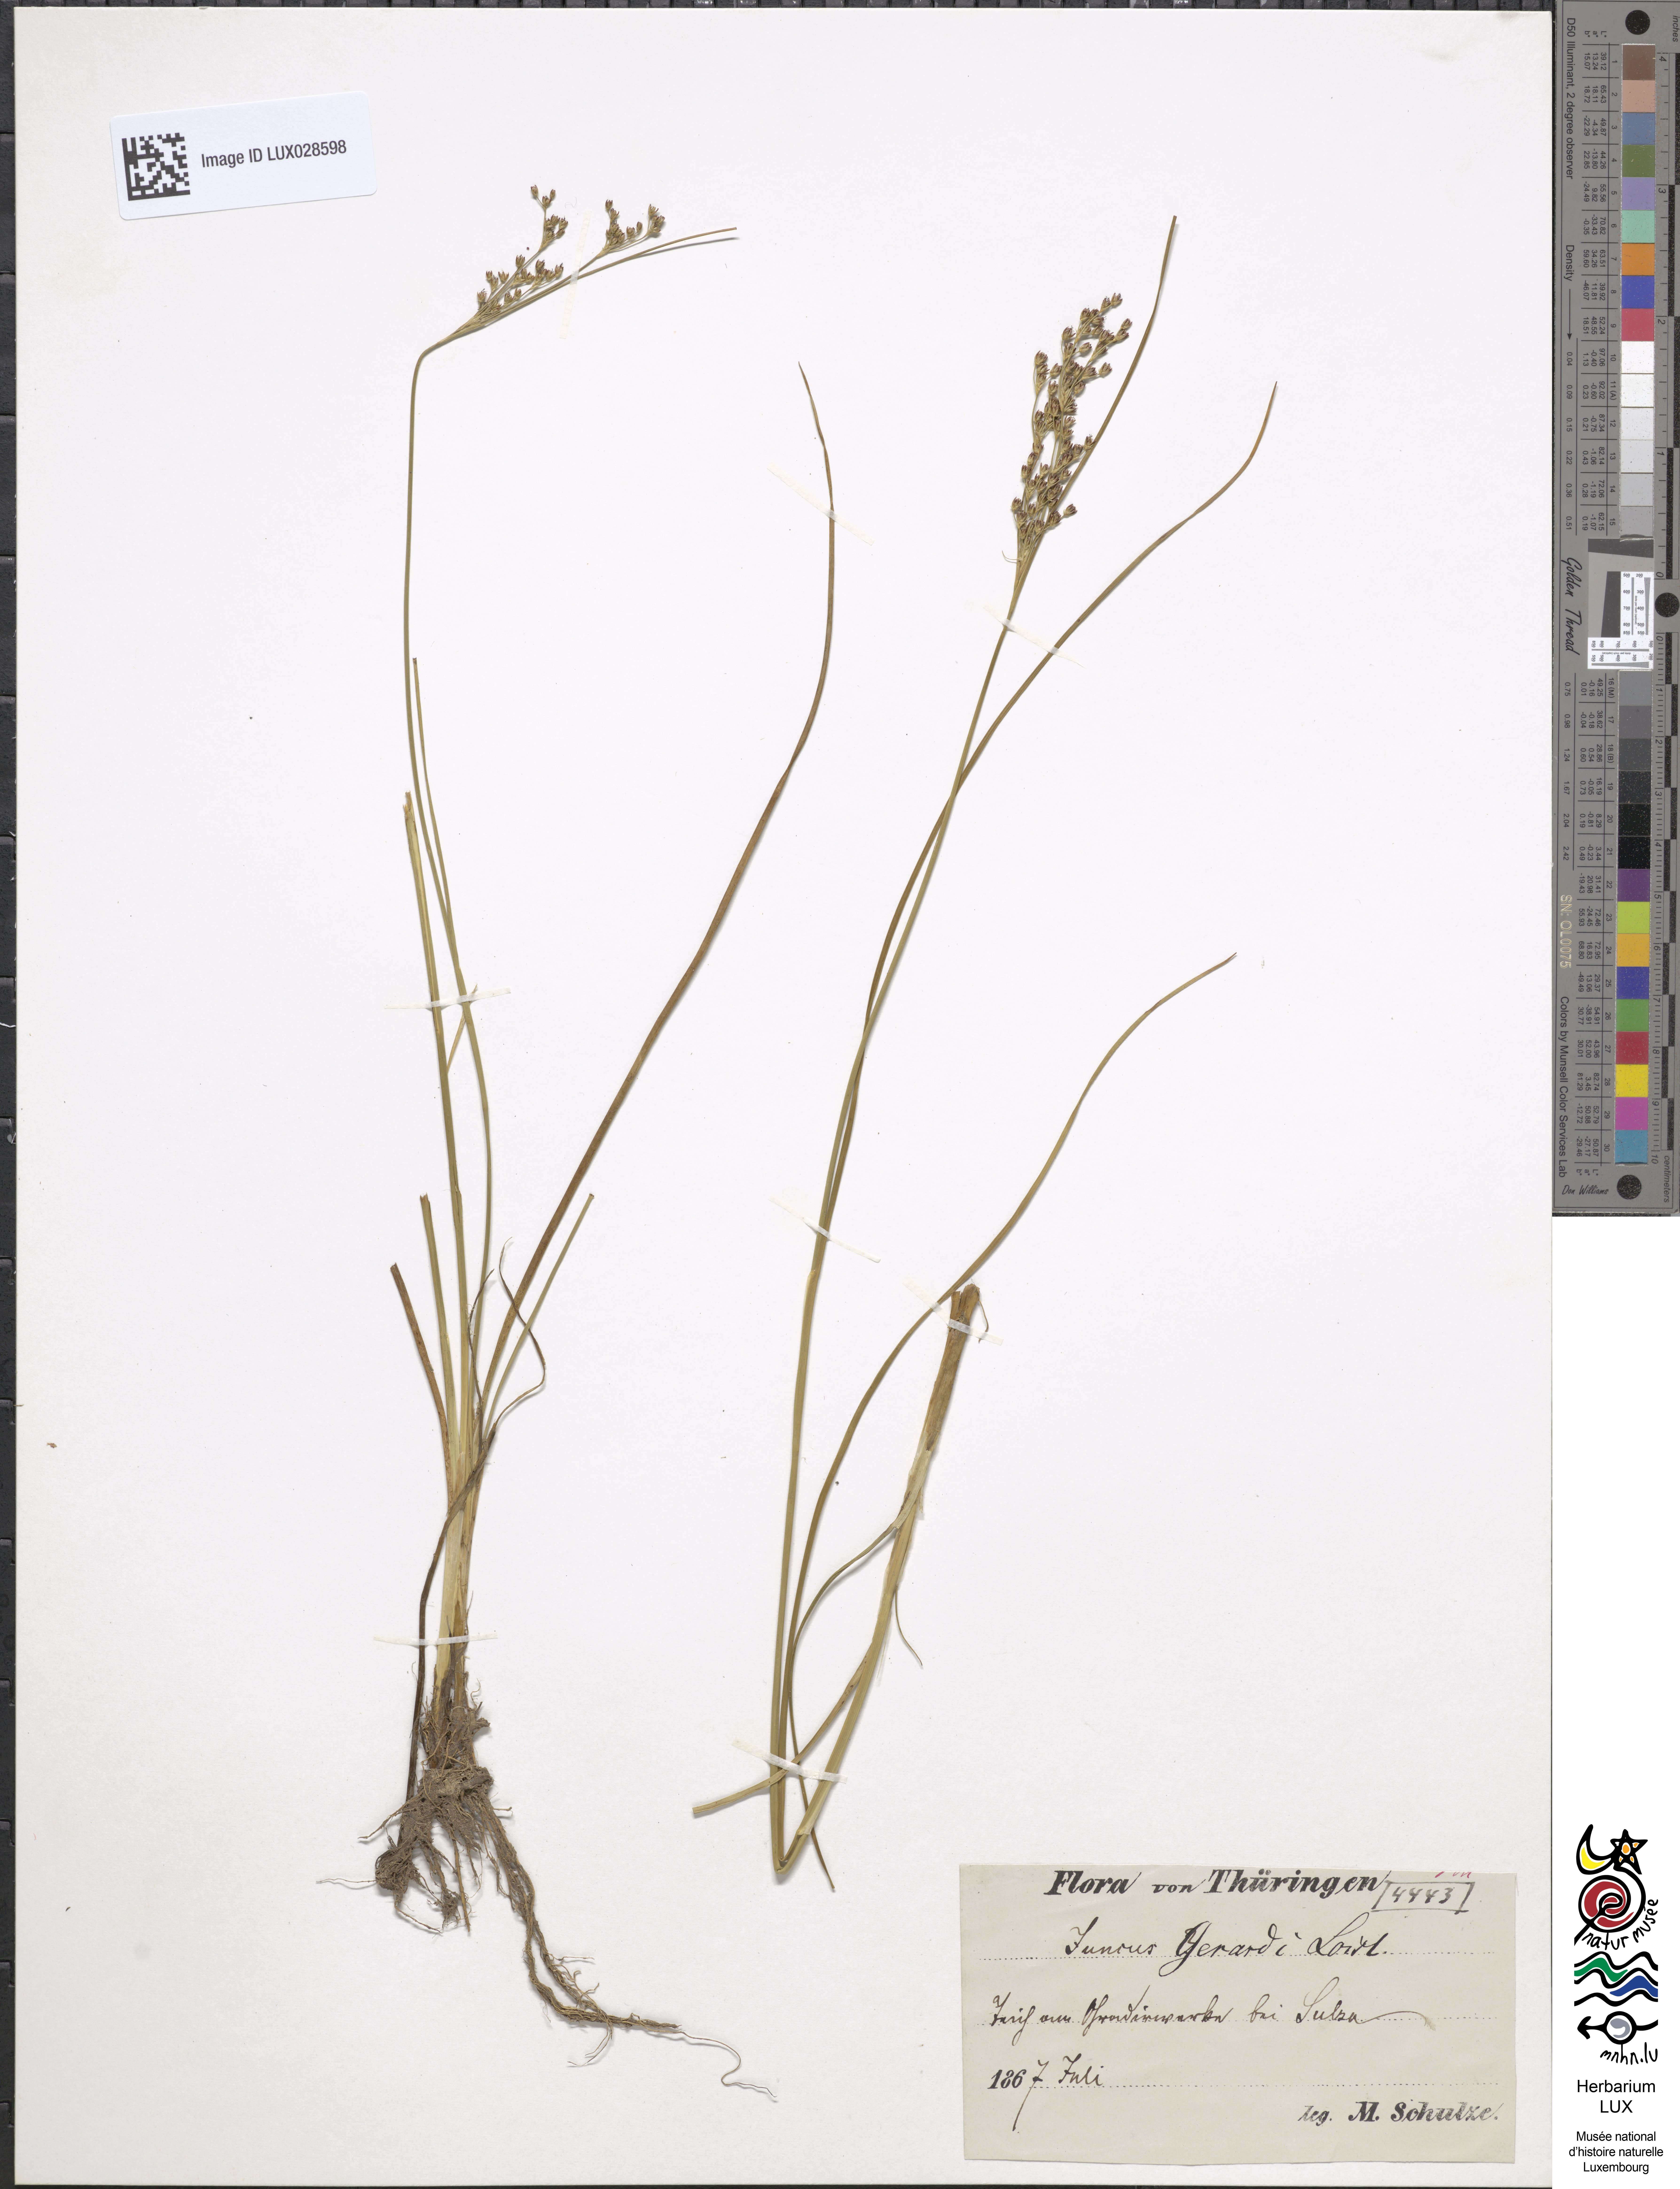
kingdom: Plantae
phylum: Tracheophyta
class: Liliopsida
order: Poales
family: Juncaceae
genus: Juncus
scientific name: Juncus gerardi
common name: Saltmarsh rush
